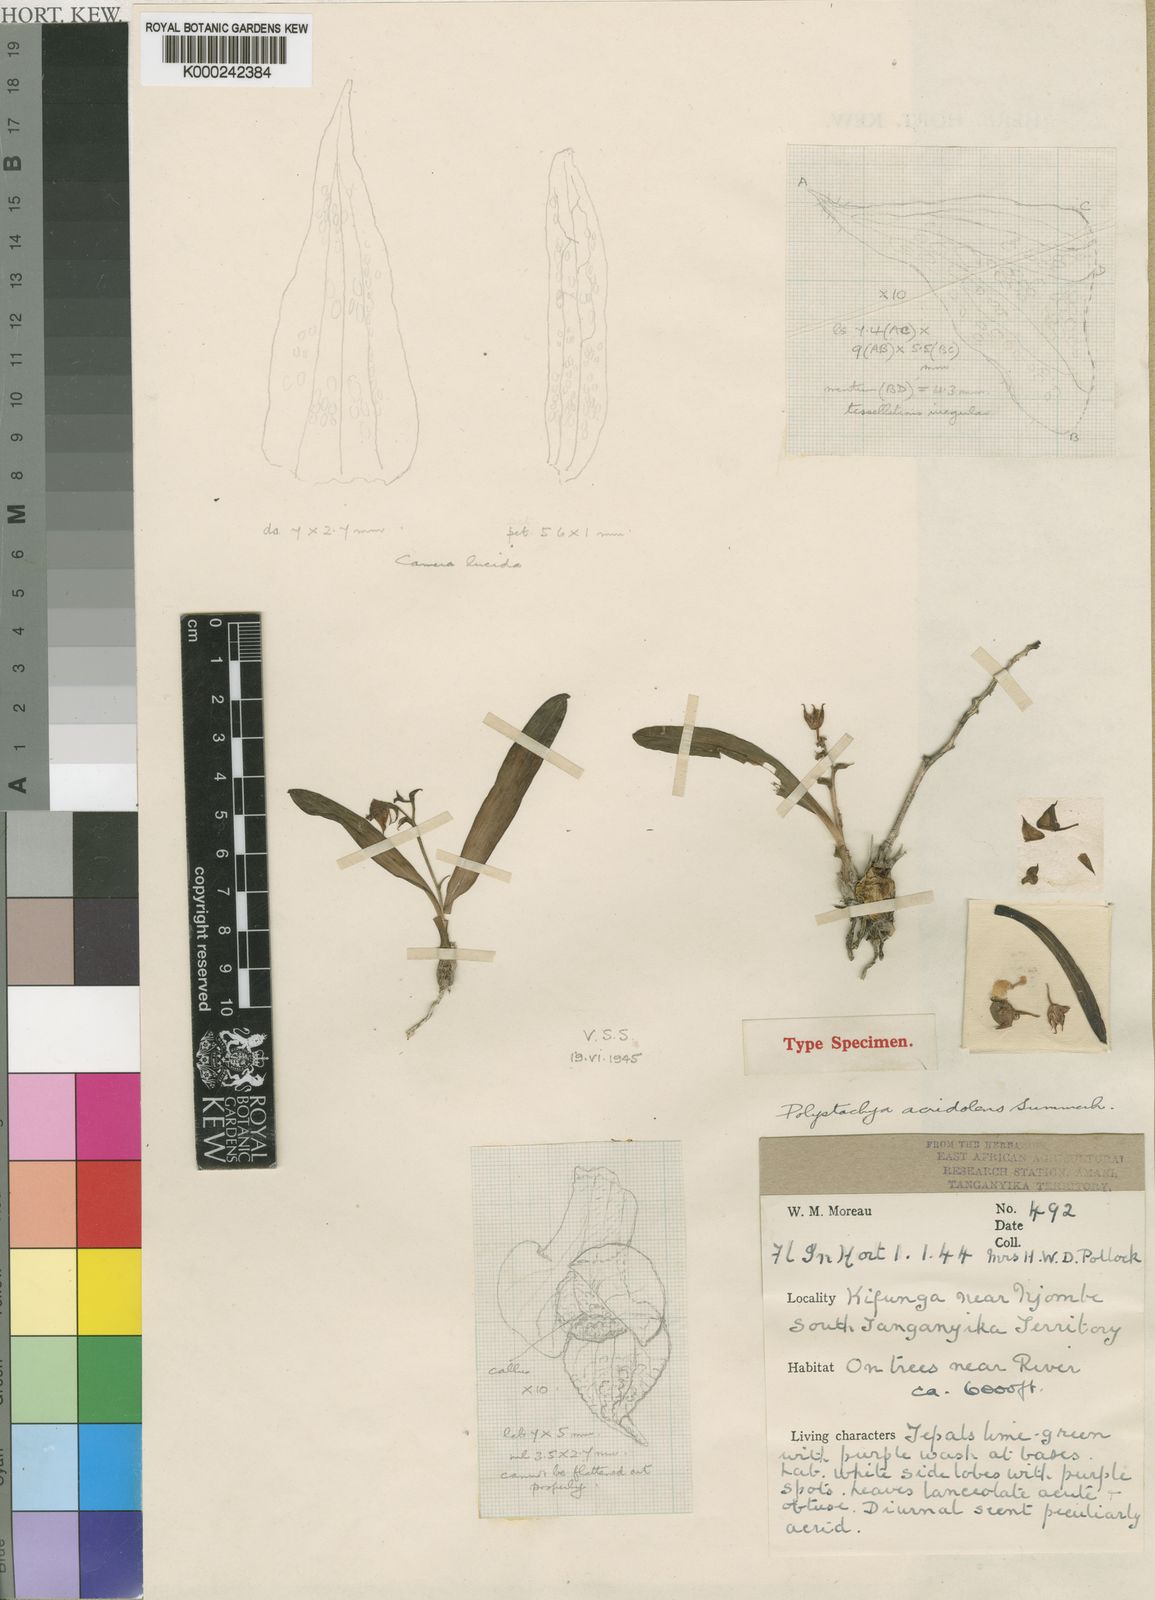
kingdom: Plantae
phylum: Tracheophyta
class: Liliopsida
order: Asparagales
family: Orchidaceae
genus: Polystachya
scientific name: Polystachya acridolens
